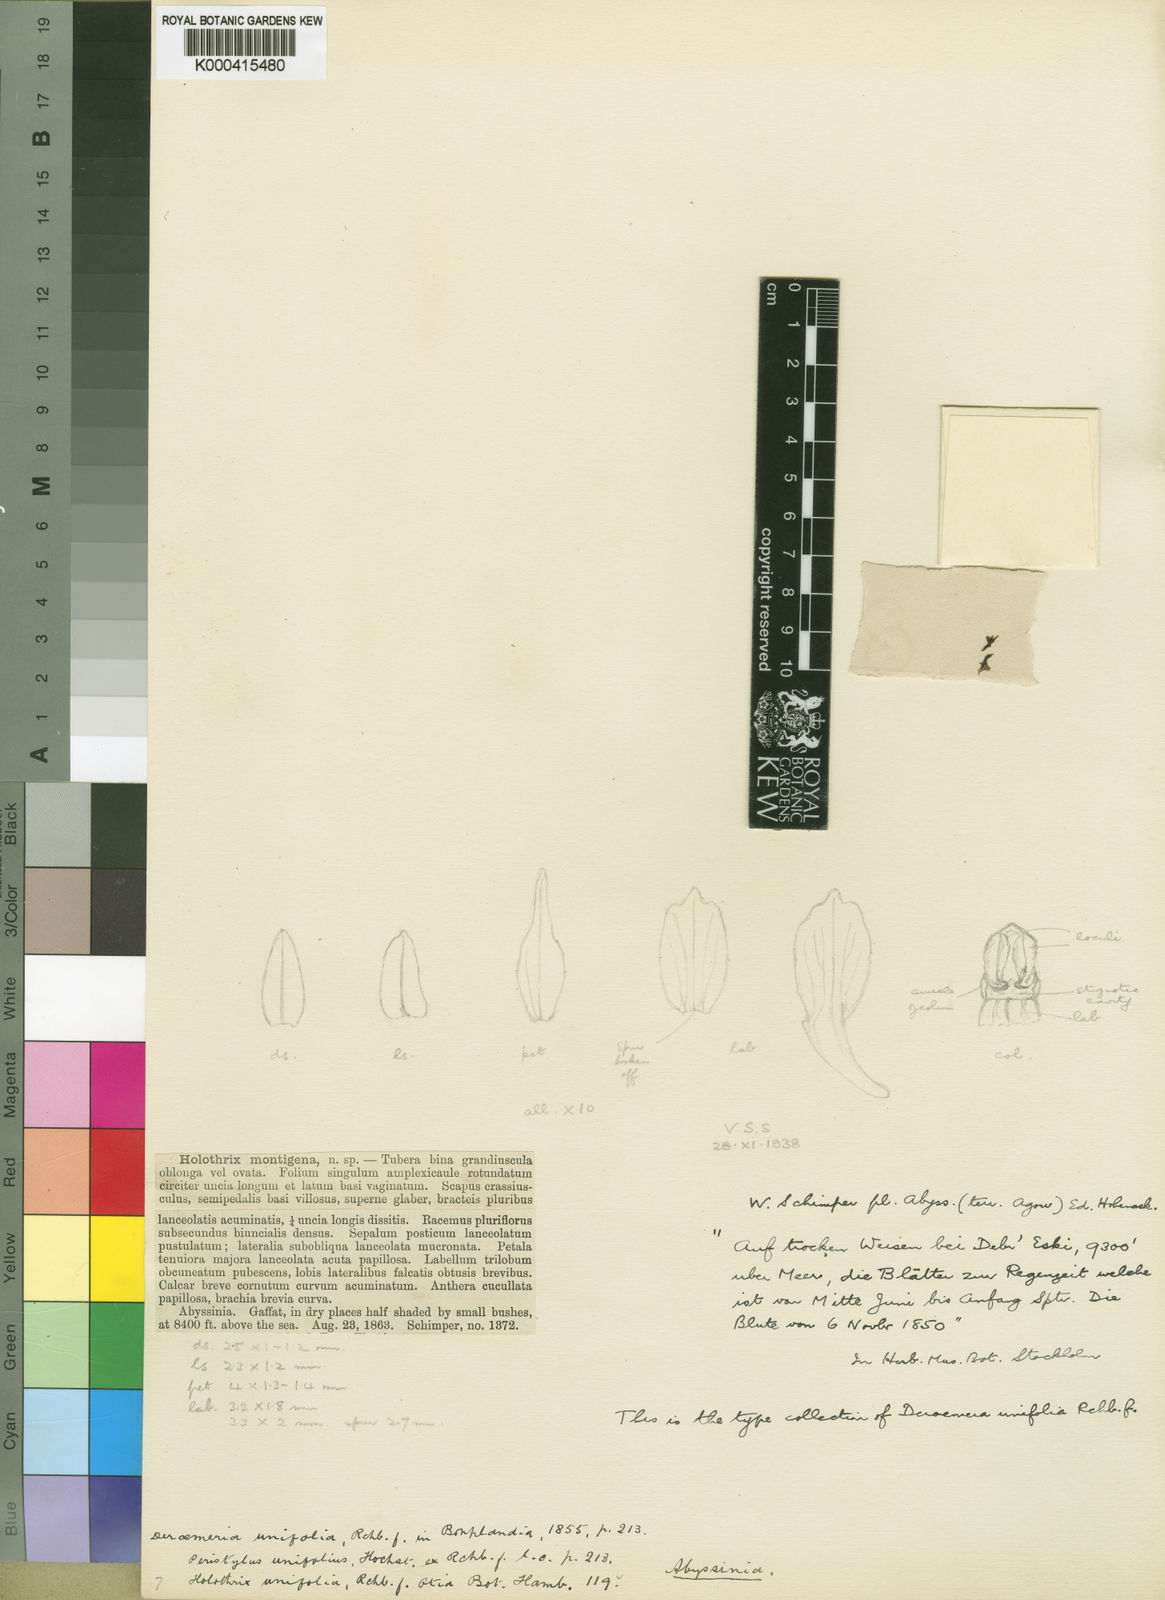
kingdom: Plantae
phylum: Tracheophyta
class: Liliopsida
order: Asparagales
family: Orchidaceae
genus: Holothrix
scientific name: Holothrix unifolia
